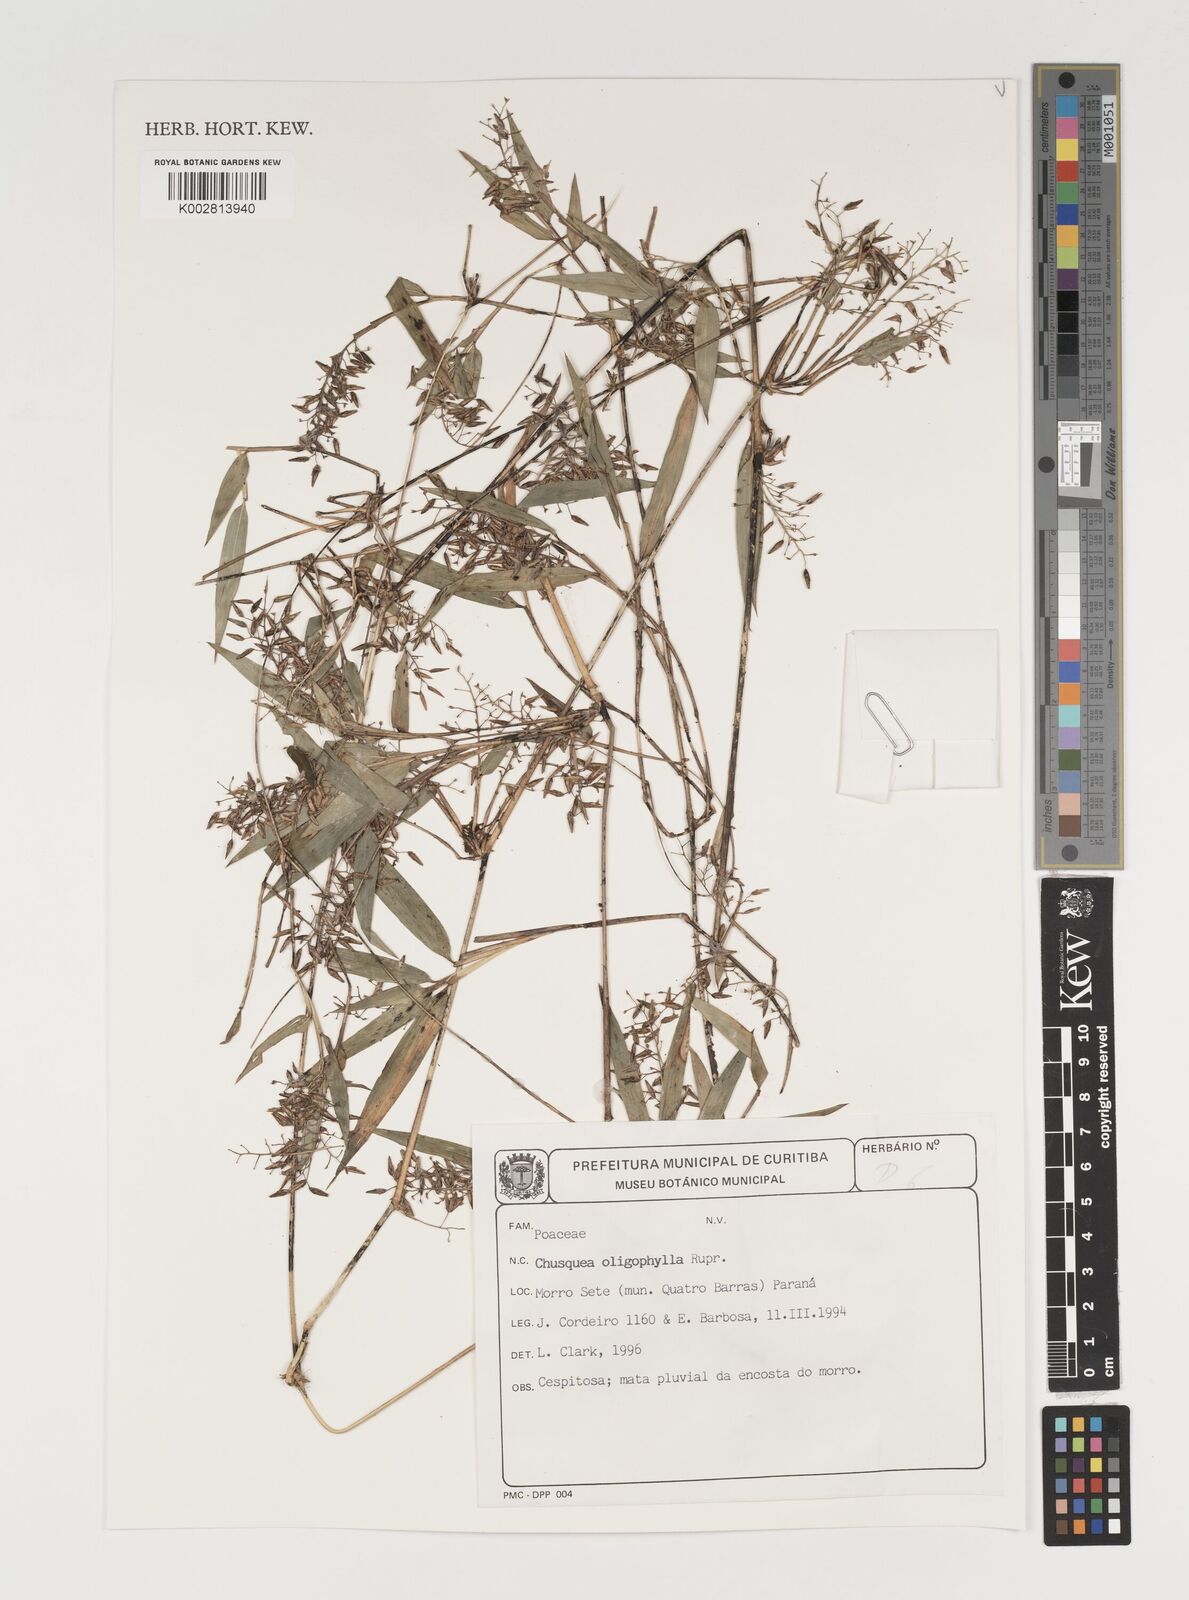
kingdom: Plantae
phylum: Tracheophyta
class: Liliopsida
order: Poales
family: Poaceae
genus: Chusquea
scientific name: Chusquea oligophylla
